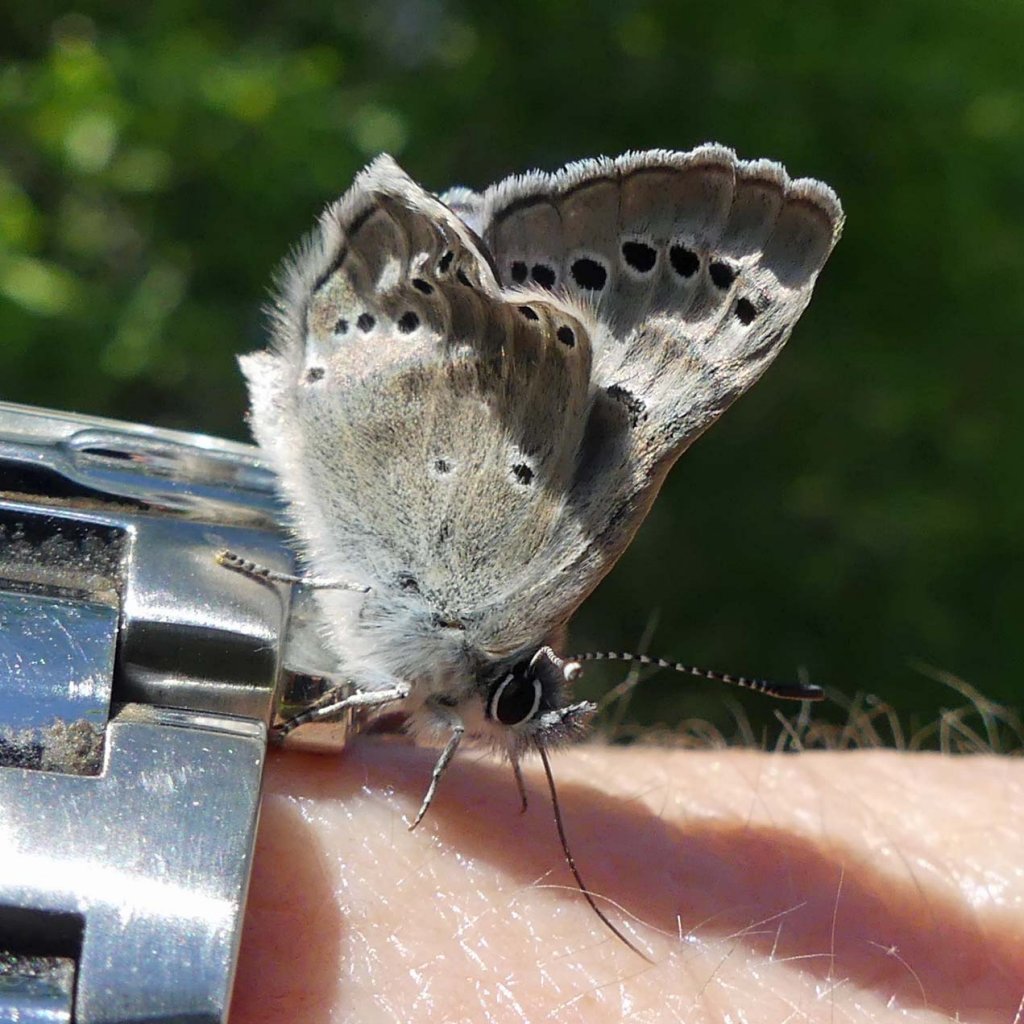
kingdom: Animalia
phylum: Arthropoda
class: Insecta
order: Lepidoptera
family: Lycaenidae
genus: Glaucopsyche
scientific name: Glaucopsyche lygdamus
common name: Silvery Blue
